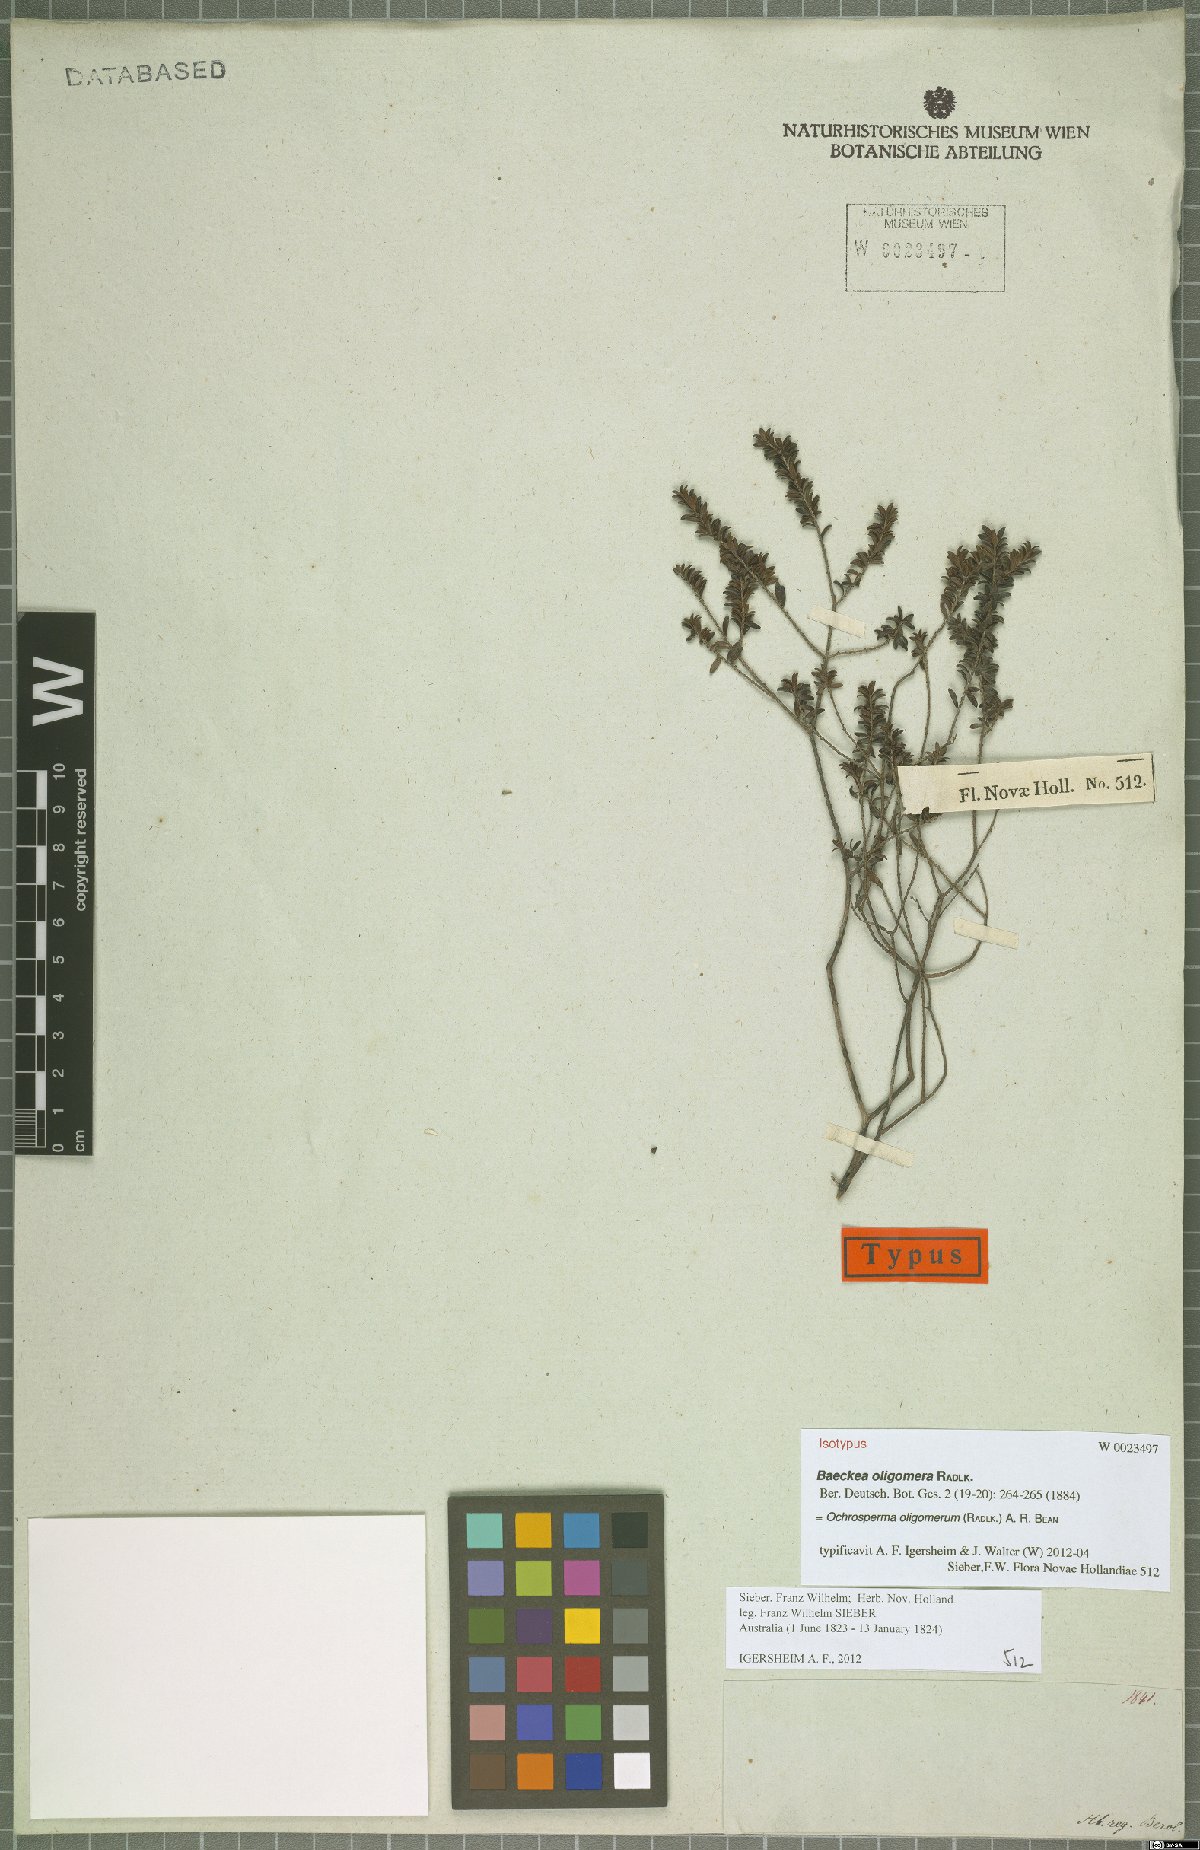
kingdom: Plantae
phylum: Tracheophyta
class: Magnoliopsida
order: Myrtales
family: Myrtaceae
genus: Ochrosperma
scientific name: Ochrosperma oligomerum
